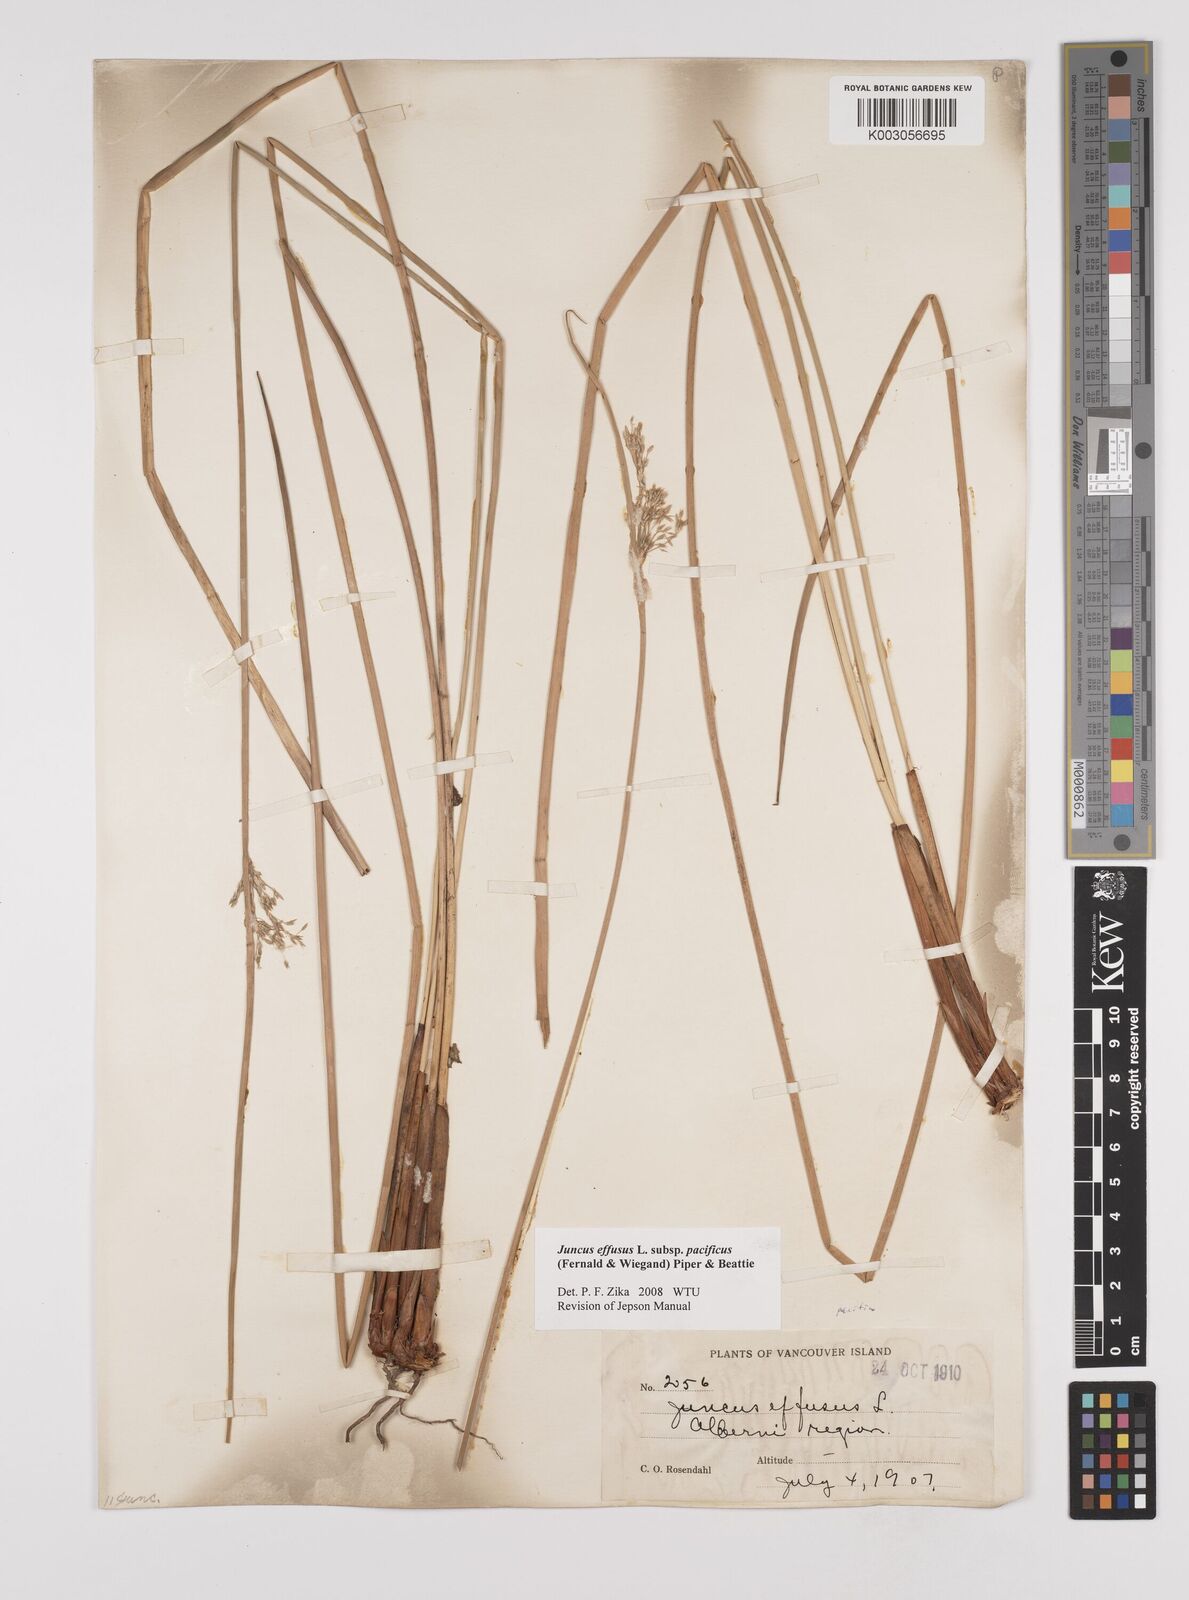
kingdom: Plantae
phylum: Tracheophyta
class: Liliopsida
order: Poales
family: Juncaceae
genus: Juncus
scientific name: Juncus effusus
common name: Soft rush
